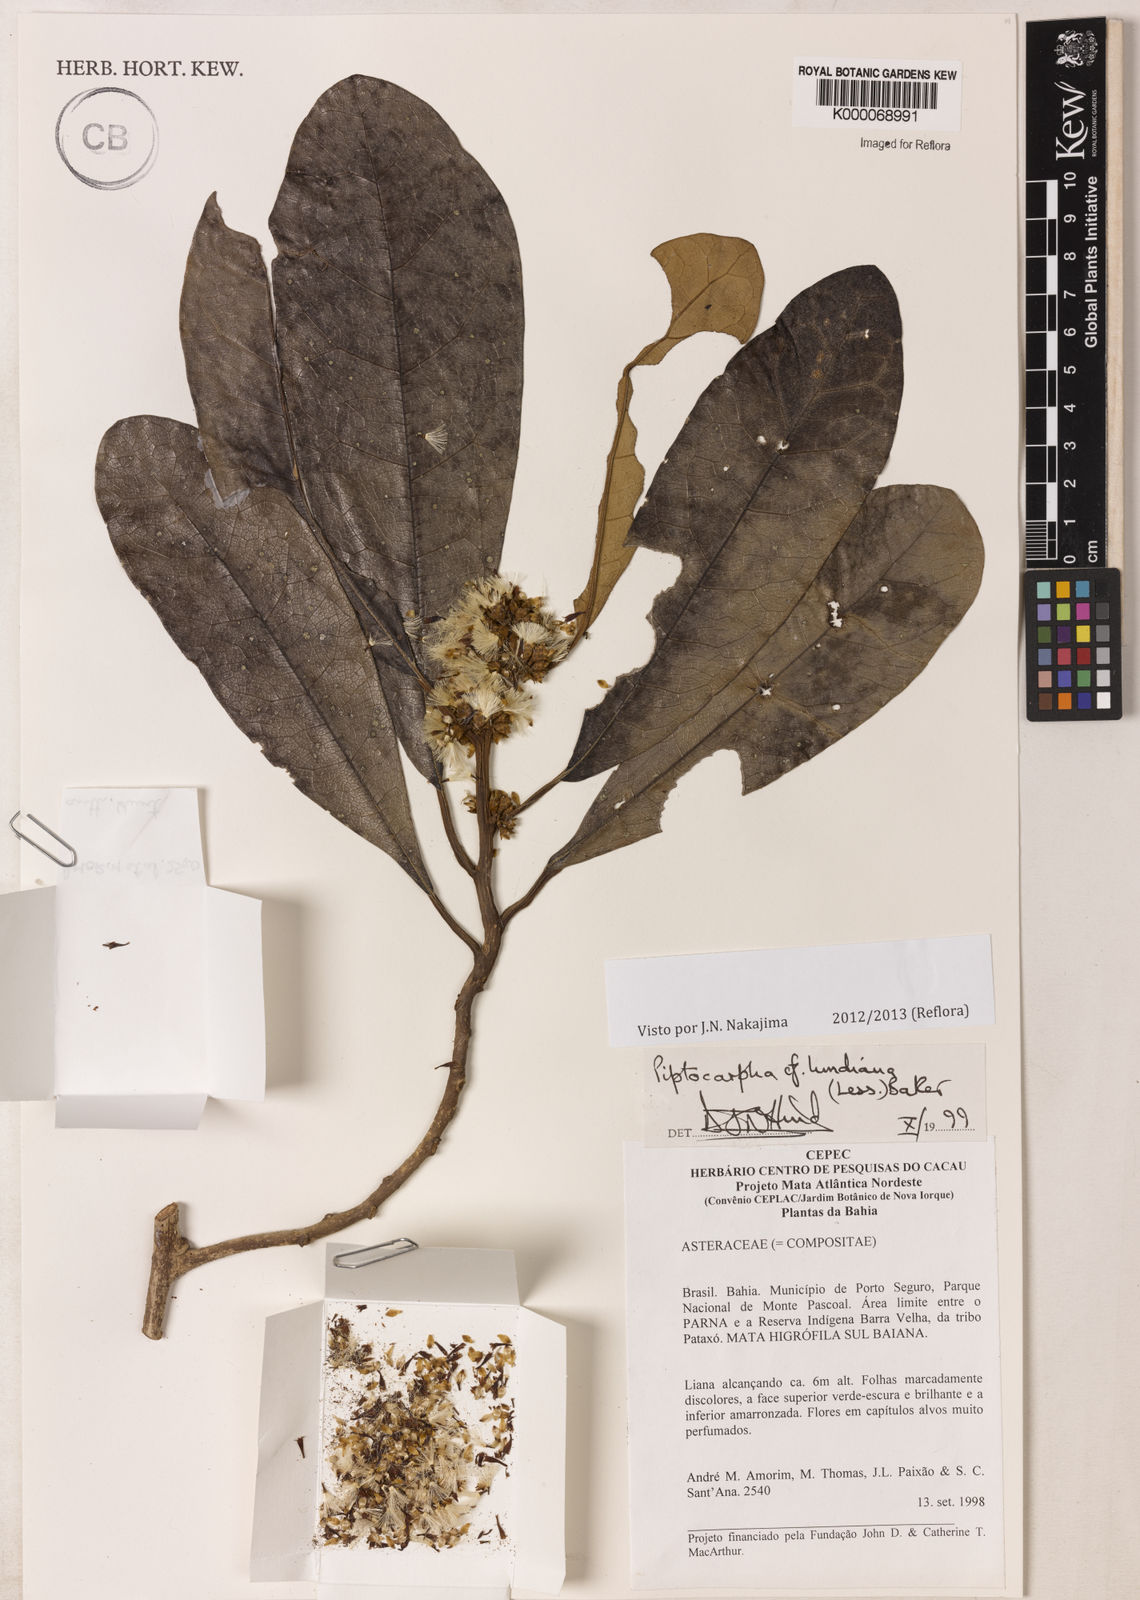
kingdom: Plantae
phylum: Tracheophyta
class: Magnoliopsida
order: Asterales
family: Asteraceae
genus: Piptocarpha
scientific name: Piptocarpha lundiana
